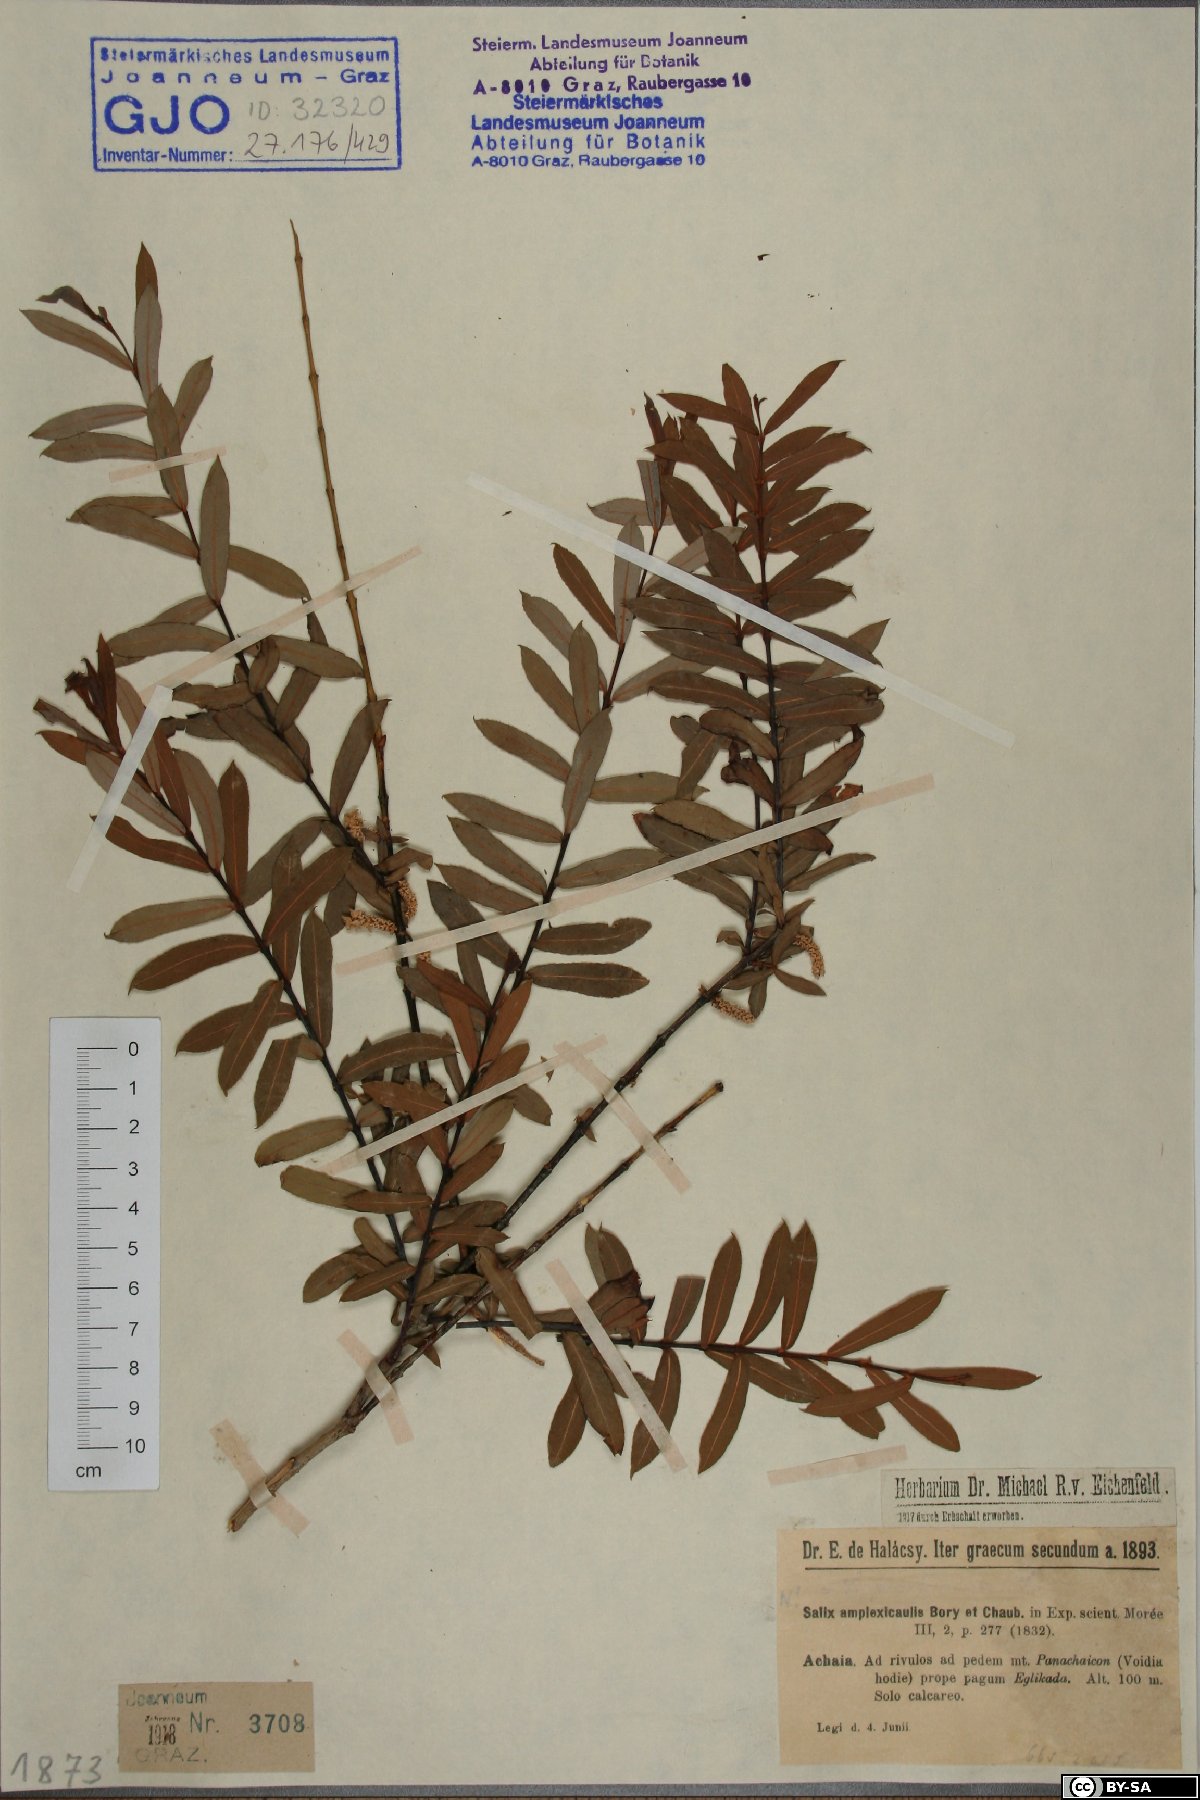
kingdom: Plantae
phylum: Tracheophyta
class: Magnoliopsida
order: Malpighiales
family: Salicaceae
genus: Salix
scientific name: Salix amplexicaulis
